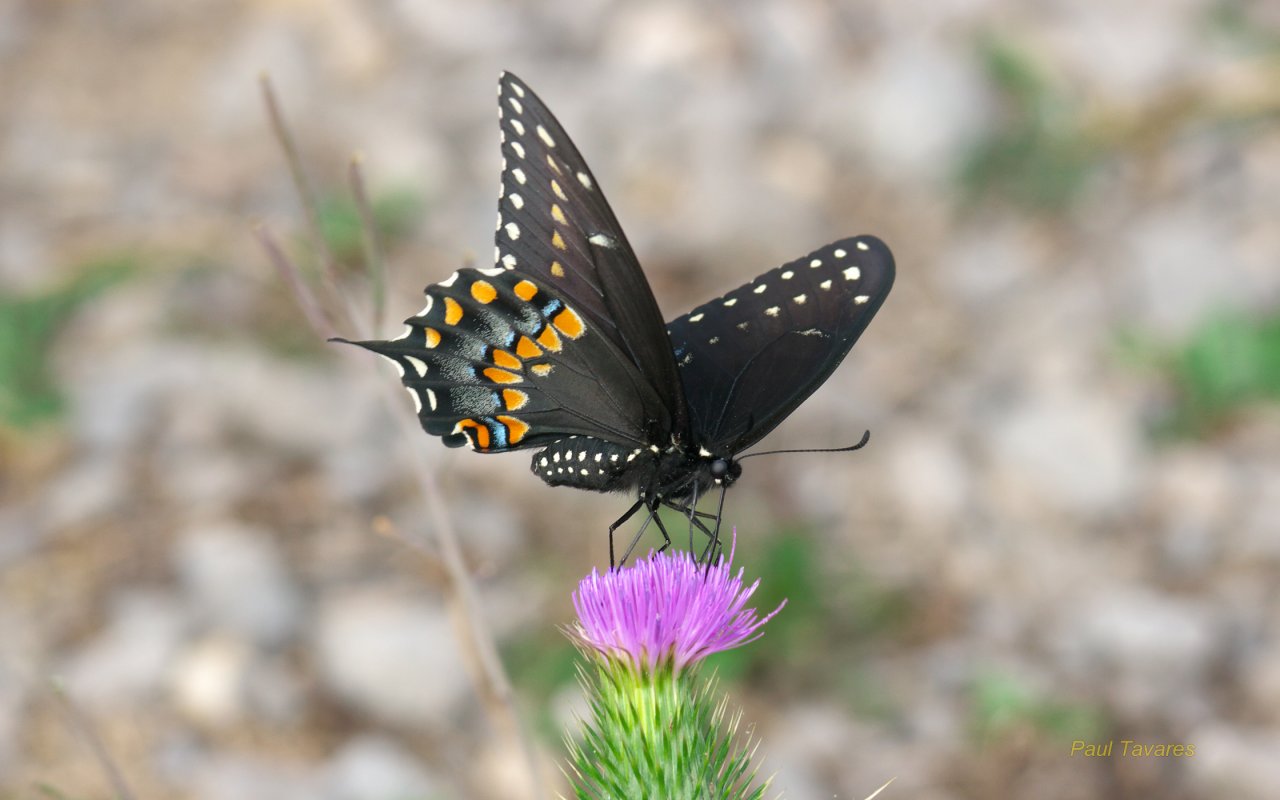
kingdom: Animalia
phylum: Arthropoda
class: Insecta
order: Lepidoptera
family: Papilionidae
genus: Papilio
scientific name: Papilio polyxenes
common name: Black Swallowtail
